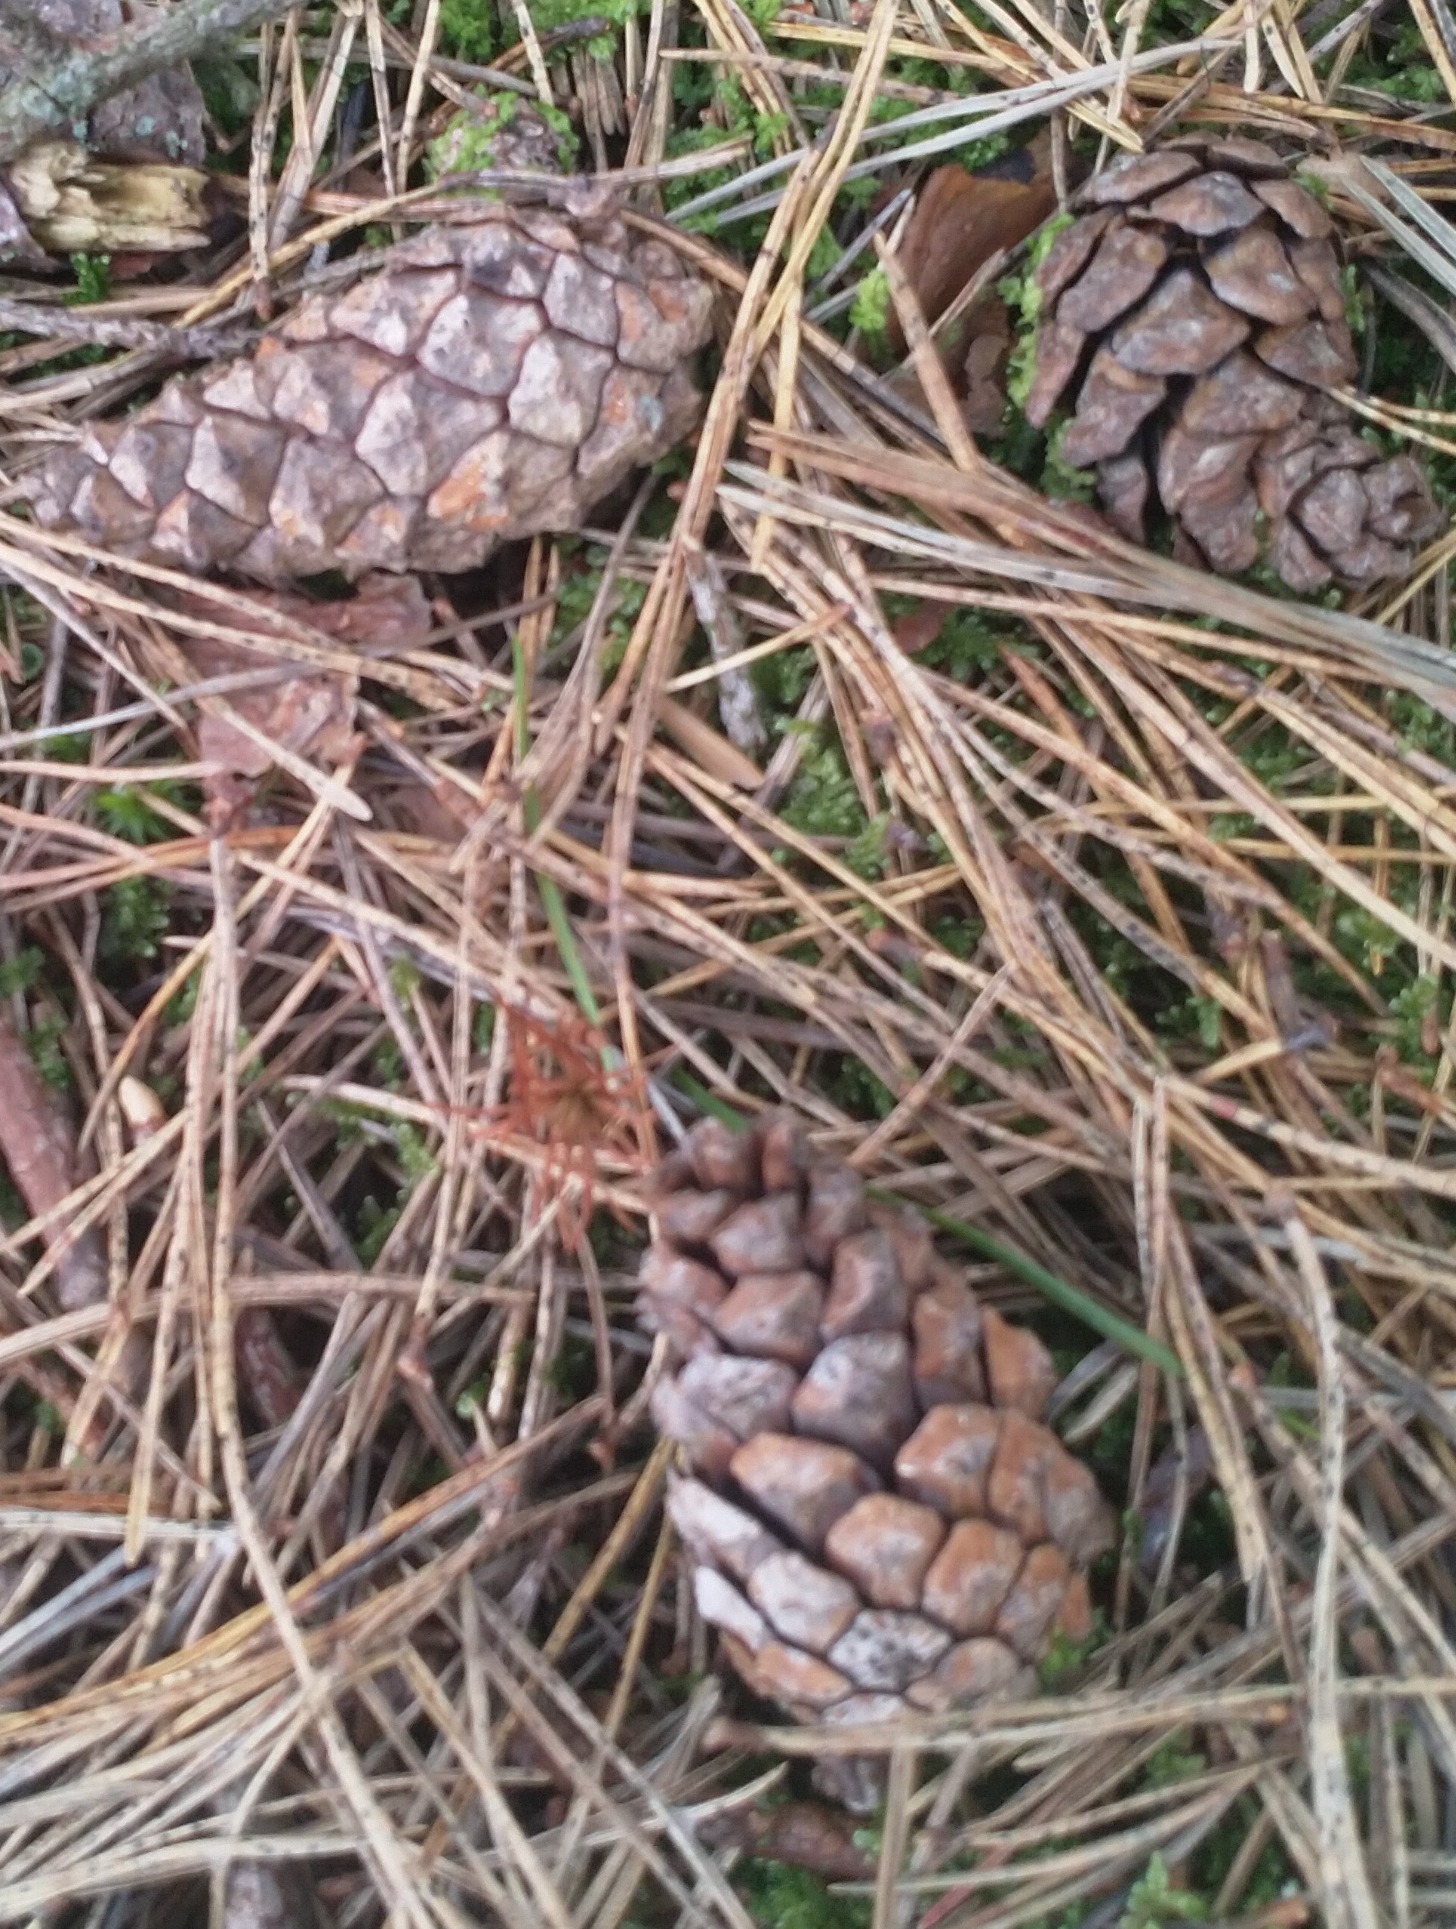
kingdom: Plantae
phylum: Tracheophyta
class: Pinopsida
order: Pinales
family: Pinaceae
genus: Pinus
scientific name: Pinus sylvestris
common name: Skov-fyr
